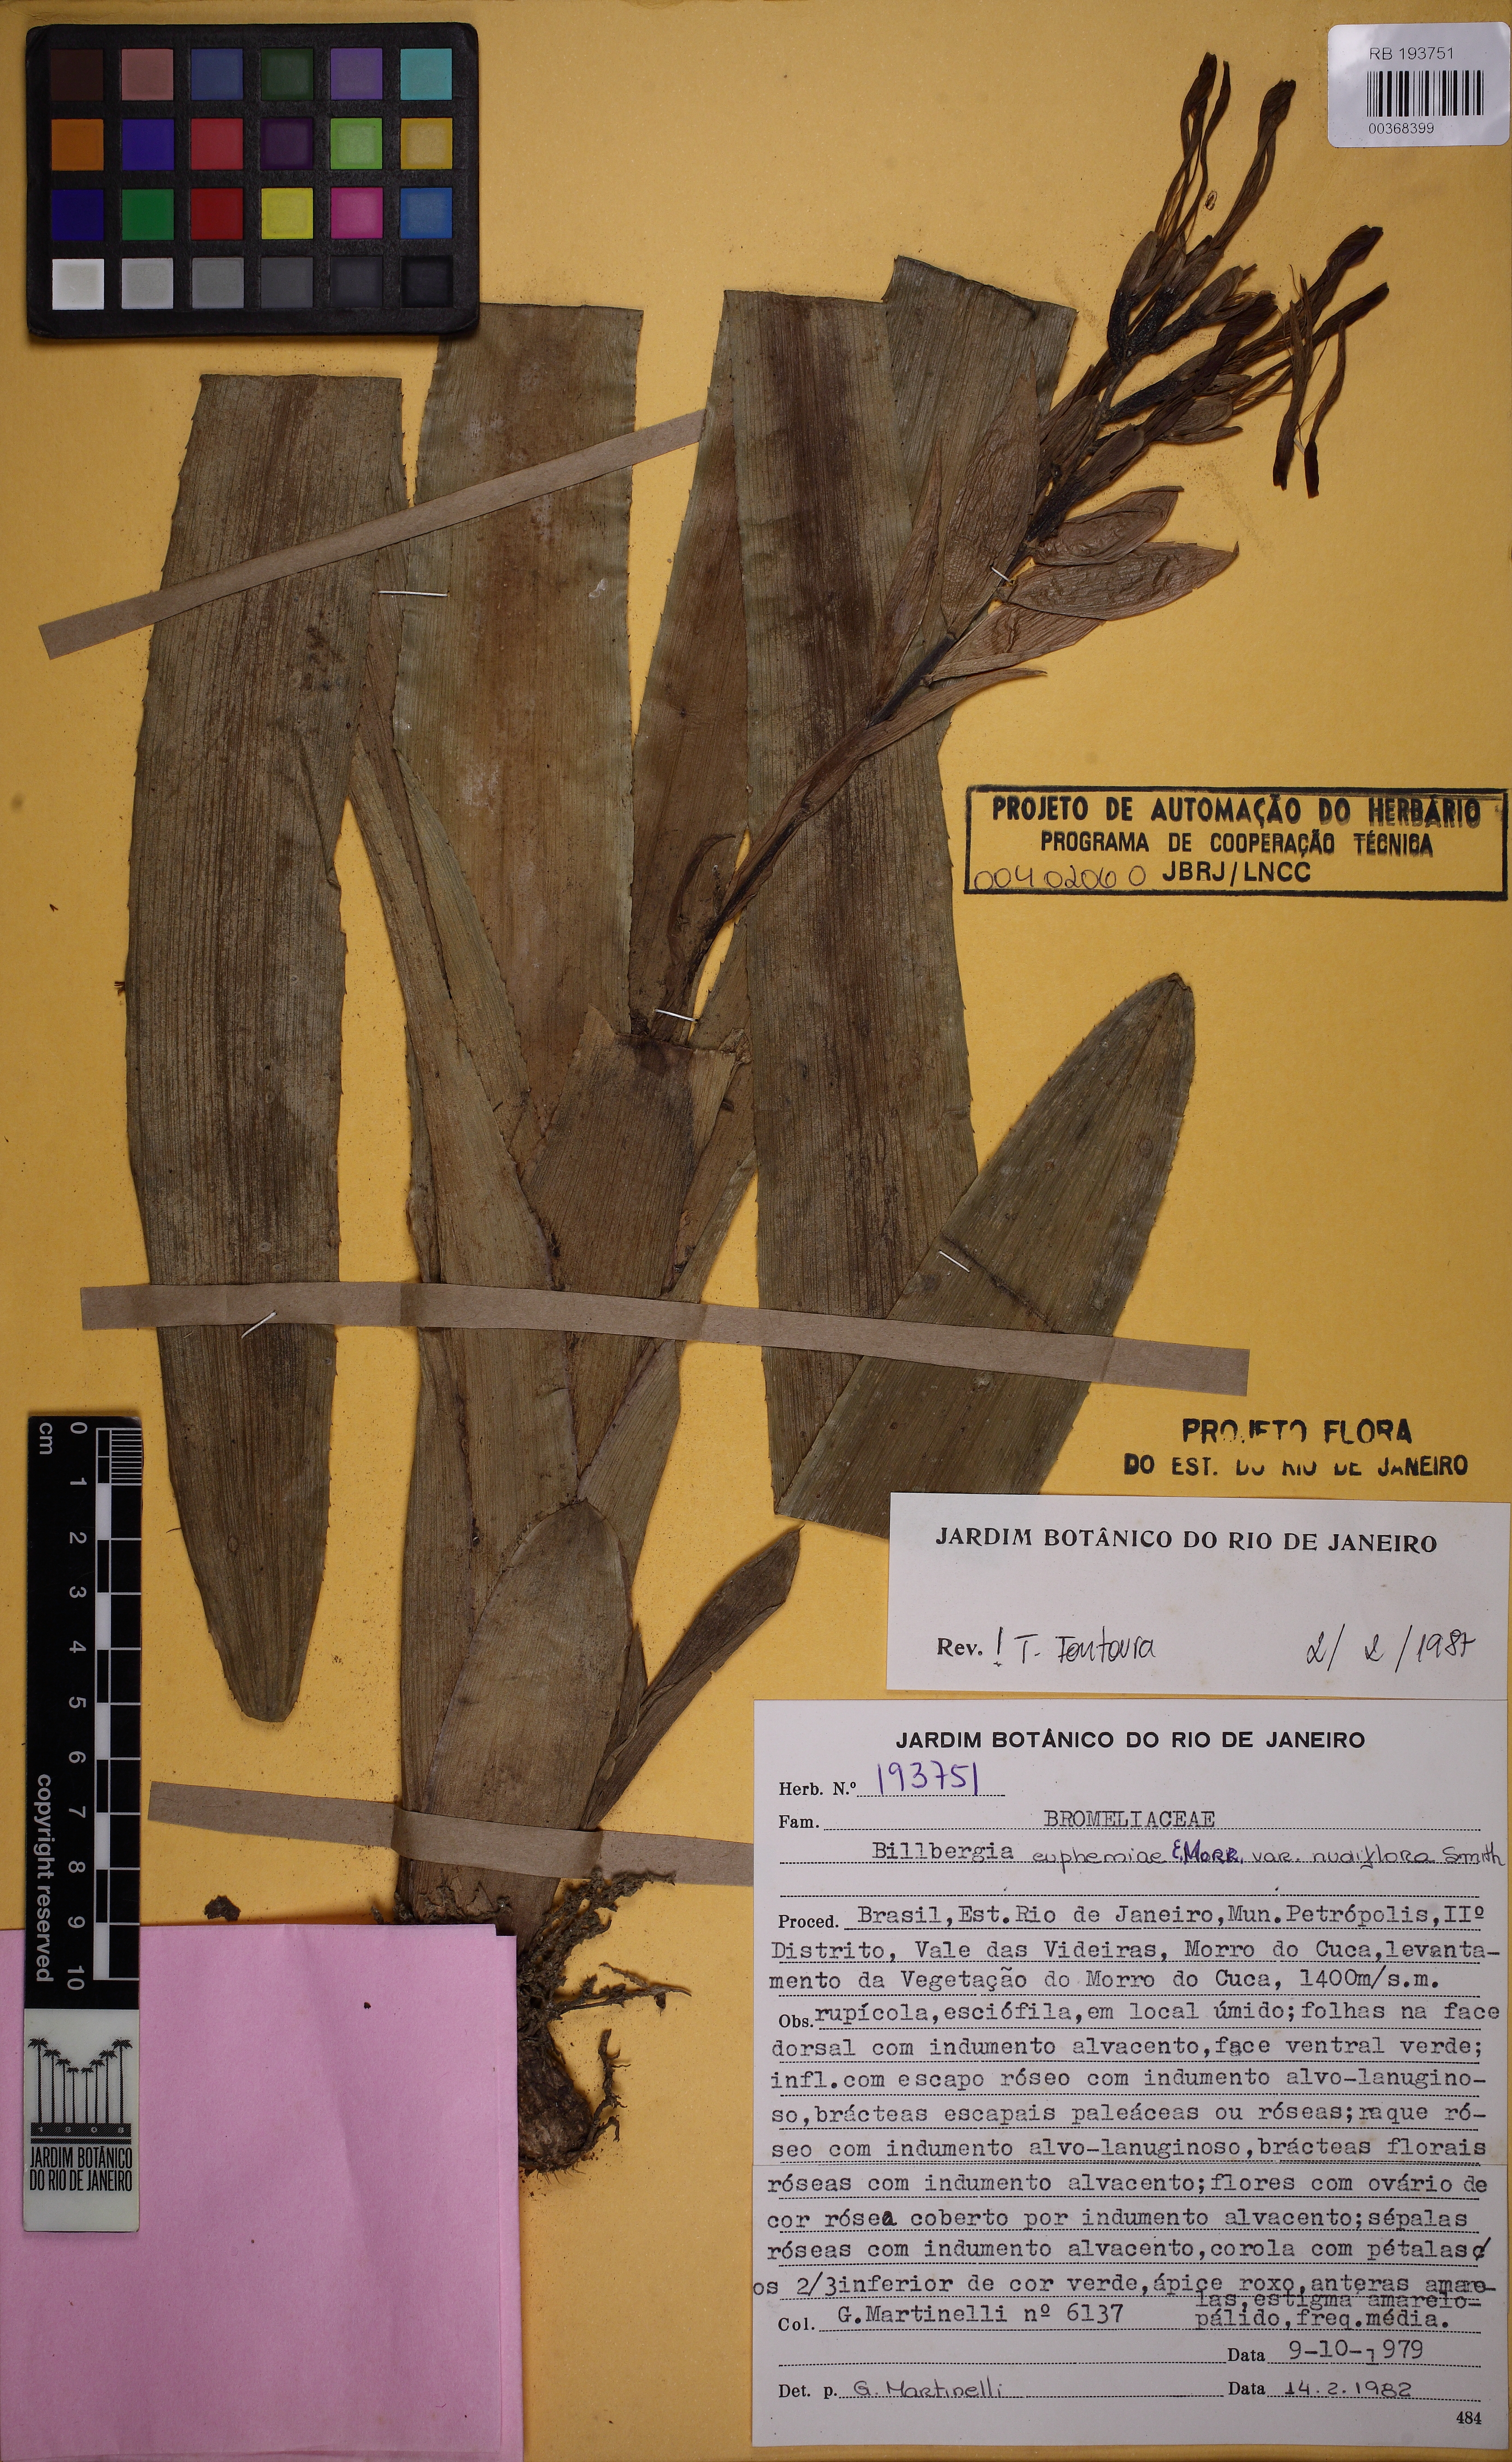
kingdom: Plantae
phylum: Tracheophyta
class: Liliopsida
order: Poales
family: Bromeliaceae
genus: Billbergia
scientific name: Billbergia euphemiae
